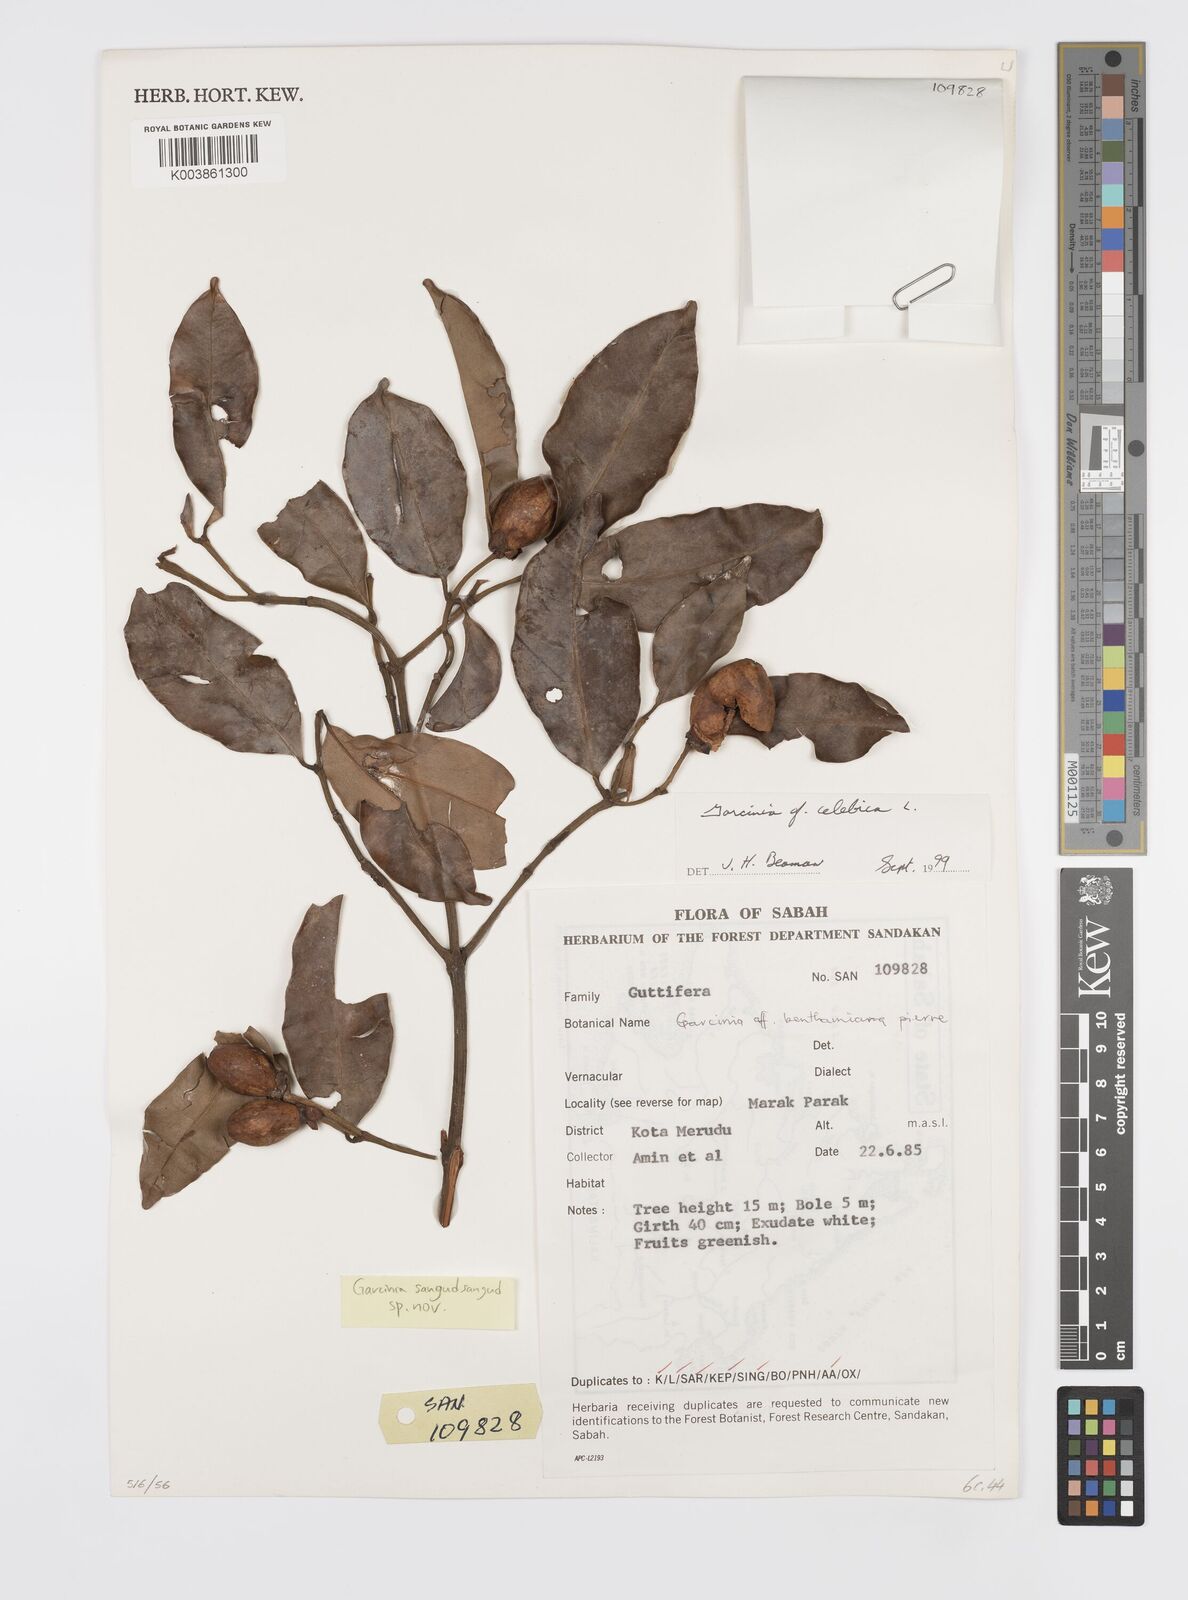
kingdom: Plantae
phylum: Tracheophyta
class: Magnoliopsida
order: Malpighiales
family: Clusiaceae
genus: Garcinia
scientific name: Garcinia sangudsangud
